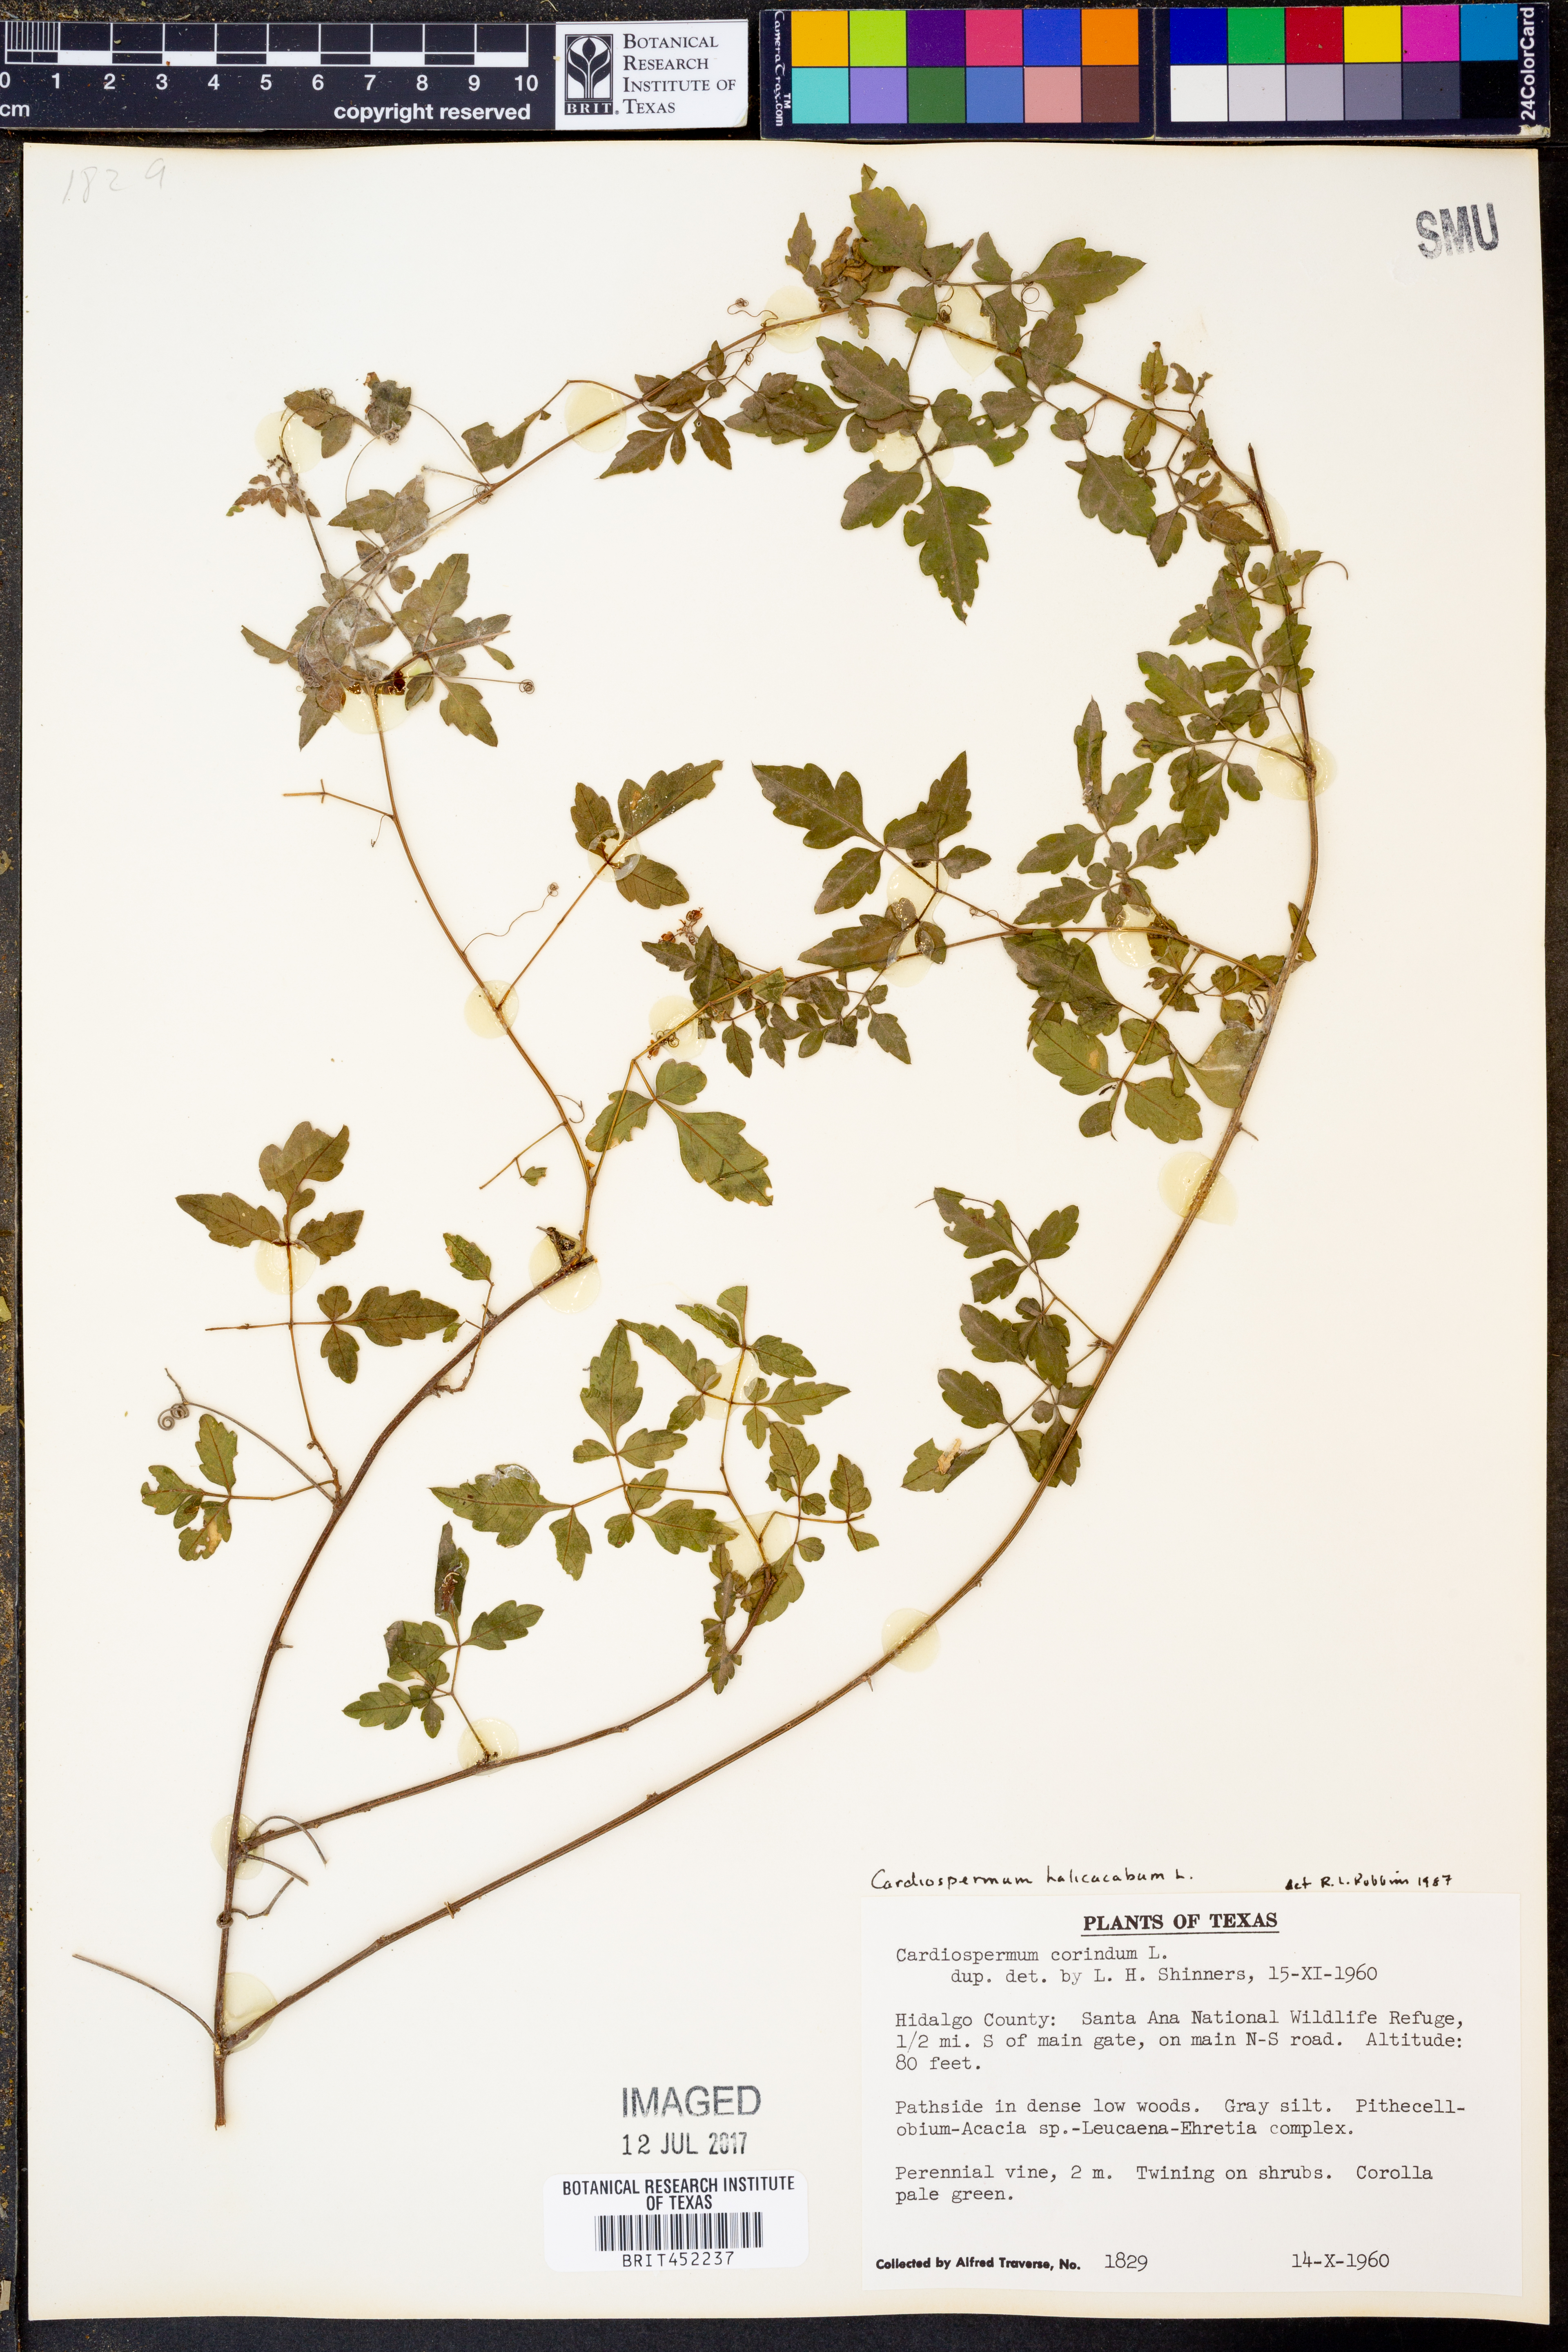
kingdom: Plantae
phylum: Tracheophyta
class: Magnoliopsida
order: Sapindales
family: Sapindaceae
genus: Cardiospermum
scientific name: Cardiospermum halicacabum
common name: Balloon vine
